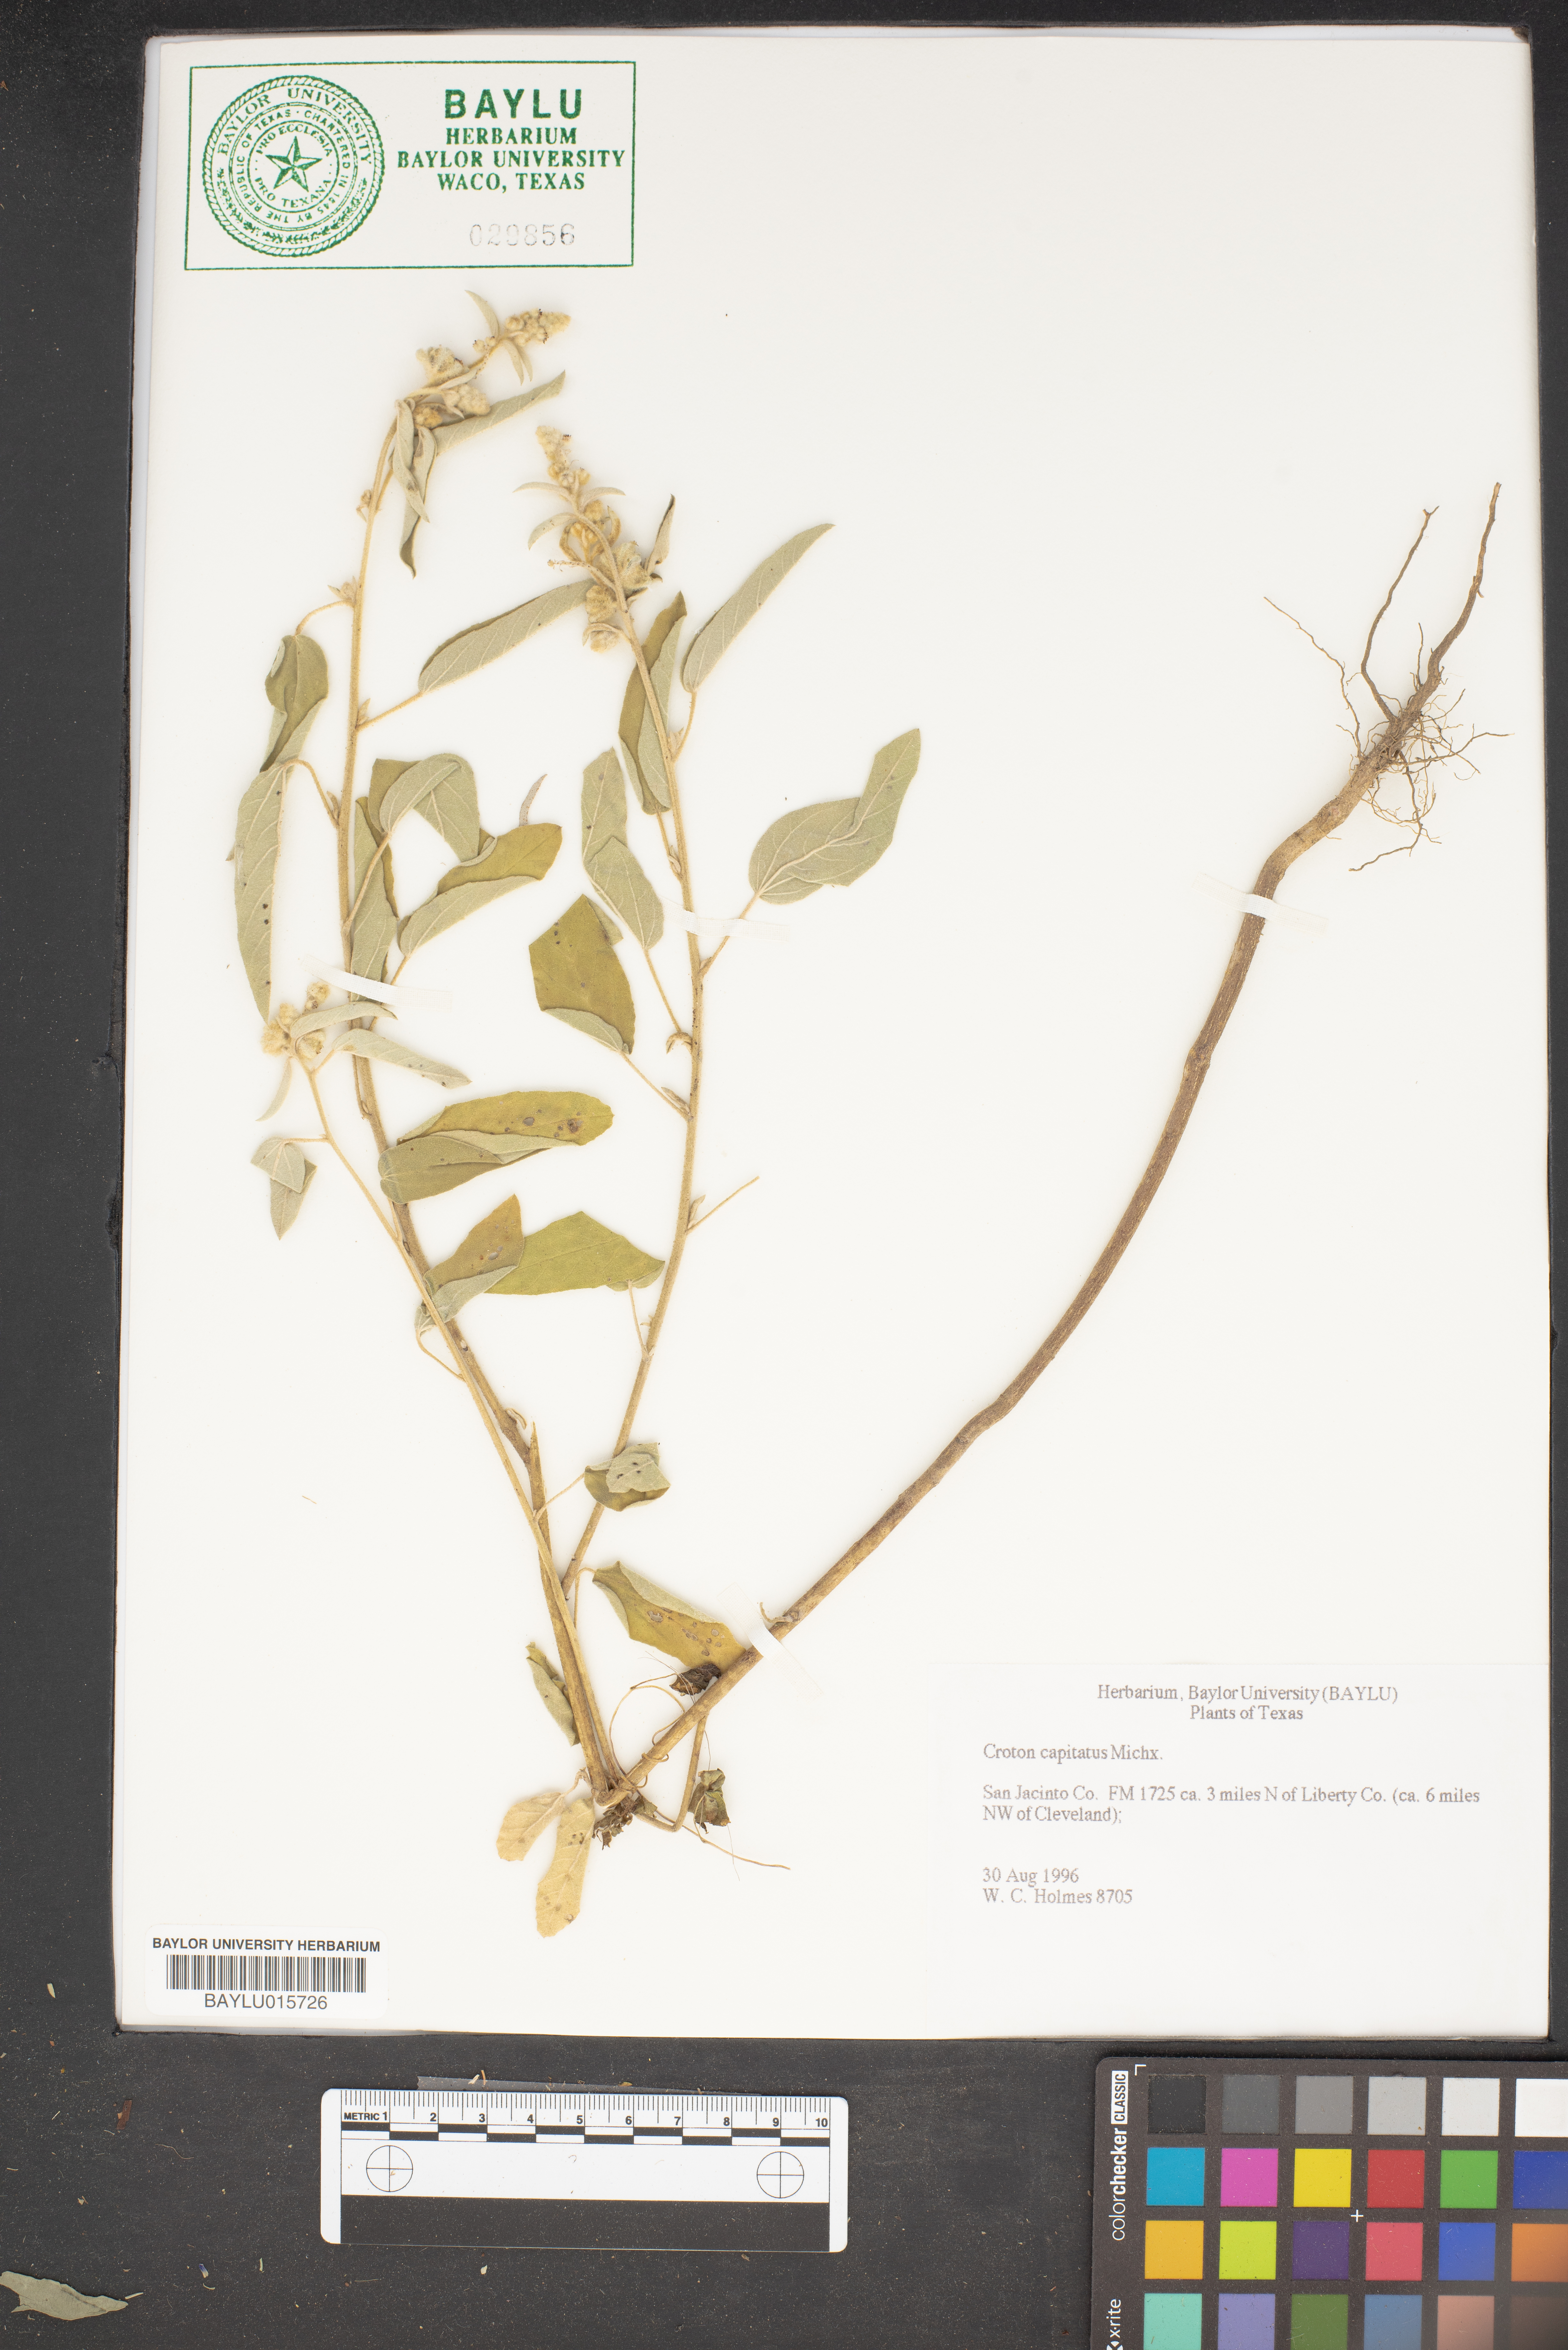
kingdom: Plantae
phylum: Tracheophyta
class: Magnoliopsida
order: Malpighiales
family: Euphorbiaceae
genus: Croton
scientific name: Croton capitatus
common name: Woolly croton
